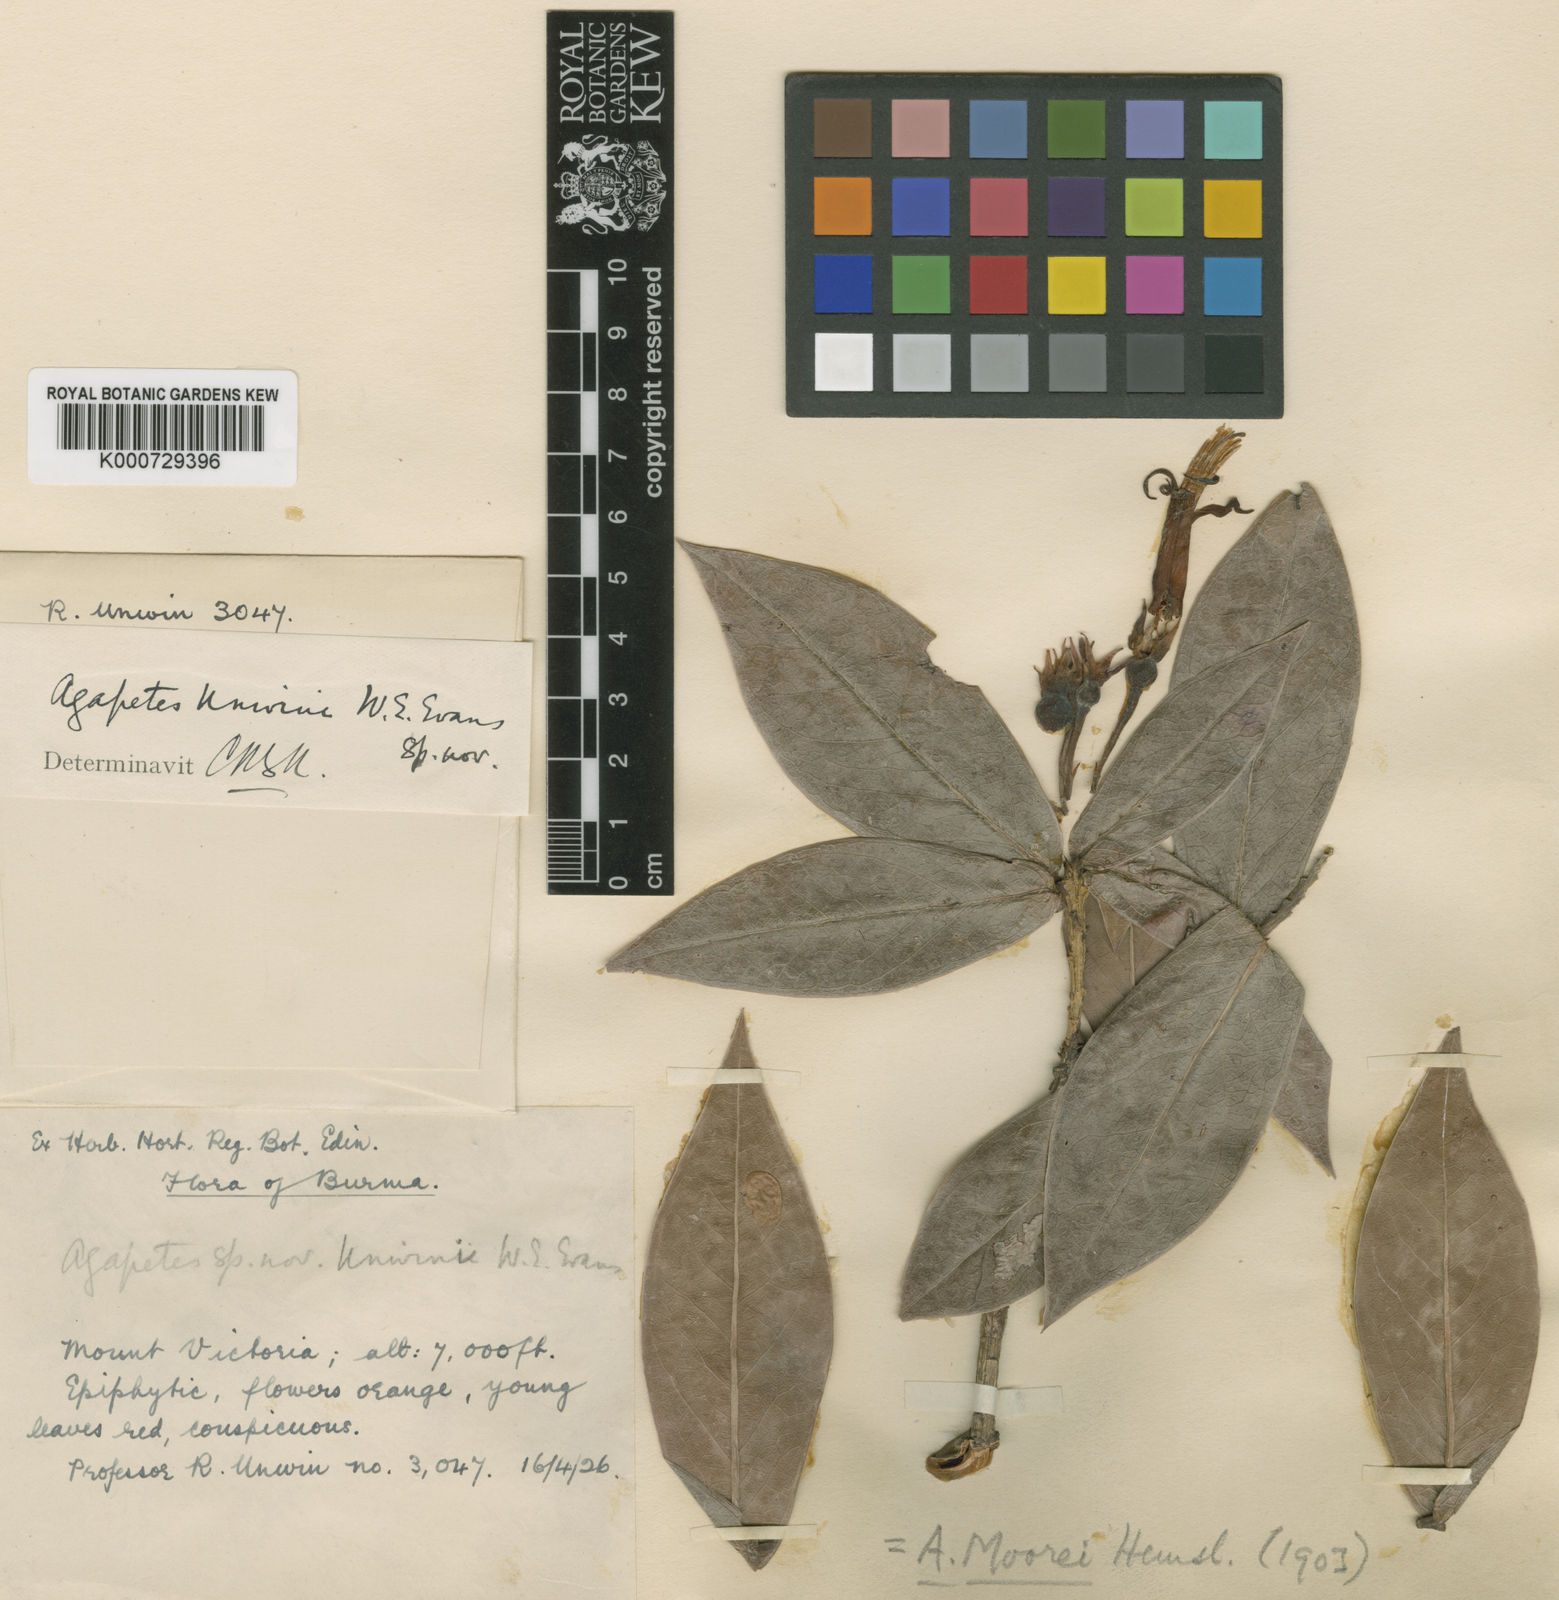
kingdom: Plantae
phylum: Tracheophyta
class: Magnoliopsida
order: Ericales
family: Ericaceae
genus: Agapetes
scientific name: Agapetes moorei
